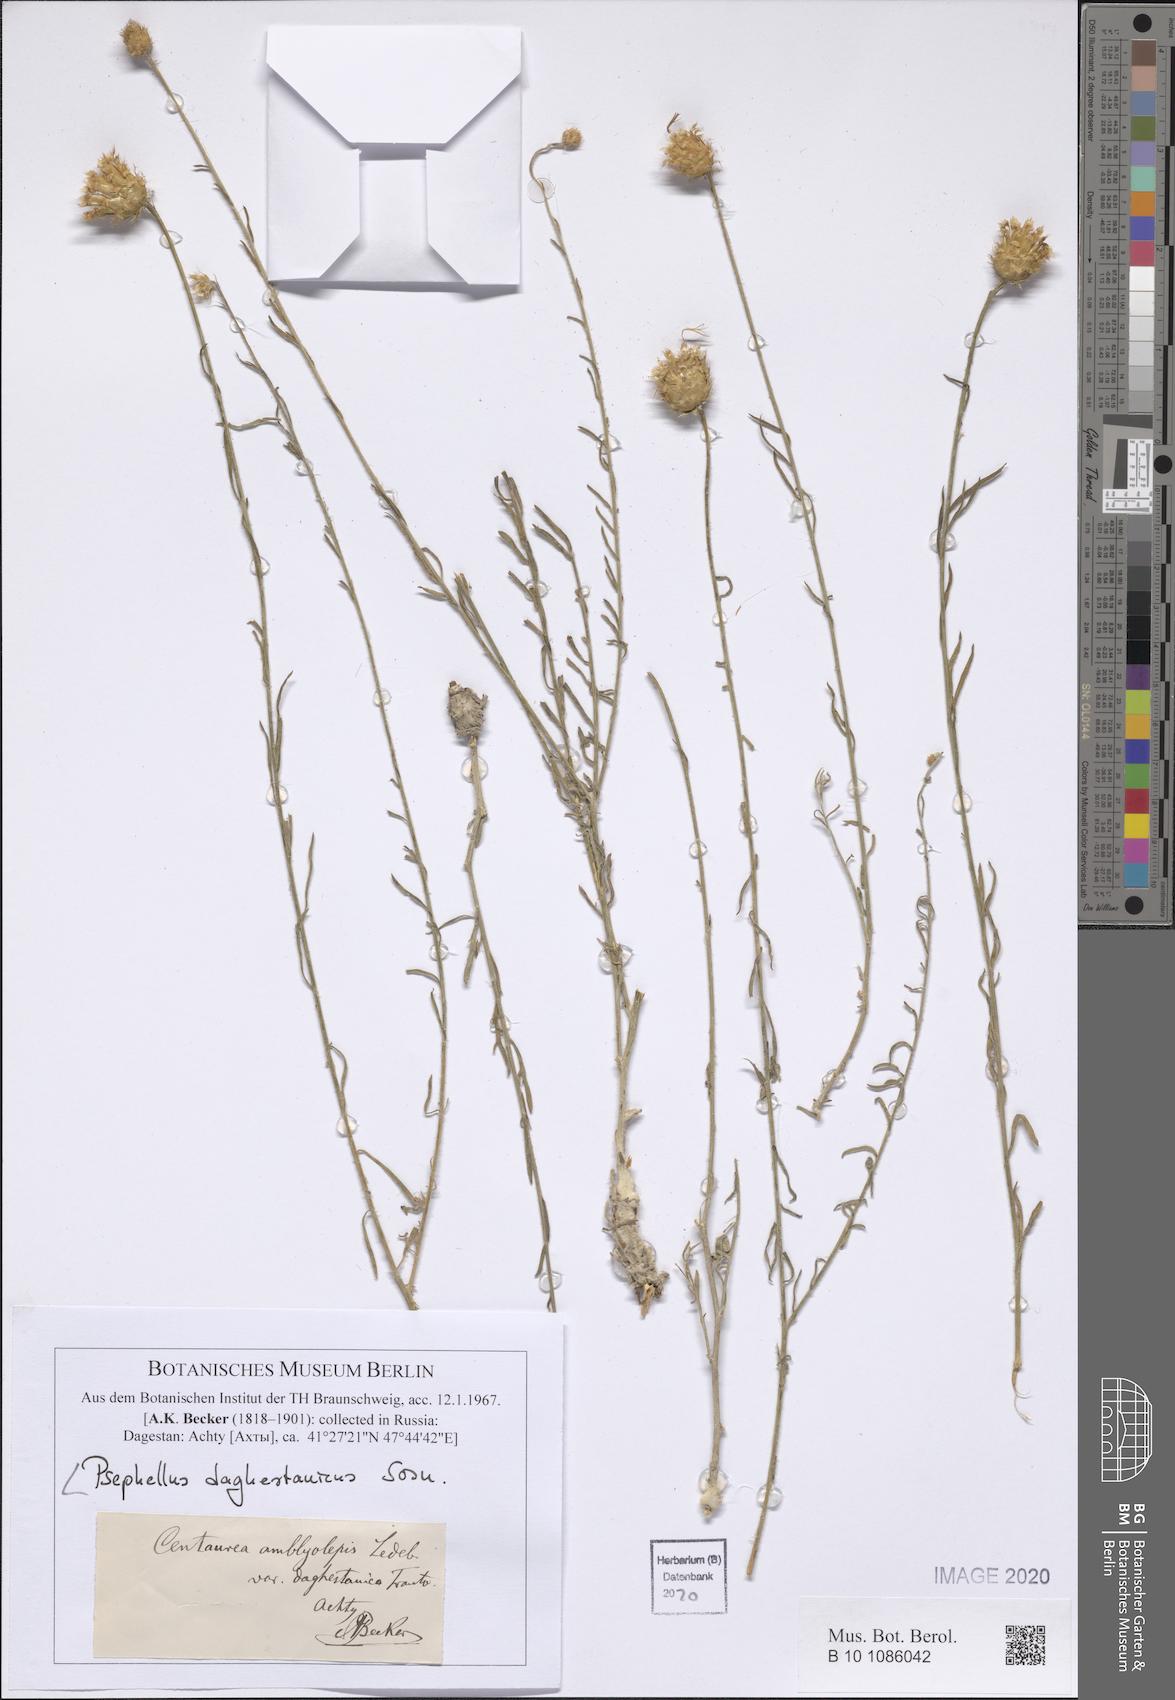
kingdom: Plantae
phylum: Tracheophyta
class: Magnoliopsida
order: Asterales
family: Asteraceae
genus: Psephellus
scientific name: Psephellus daghestanicus
